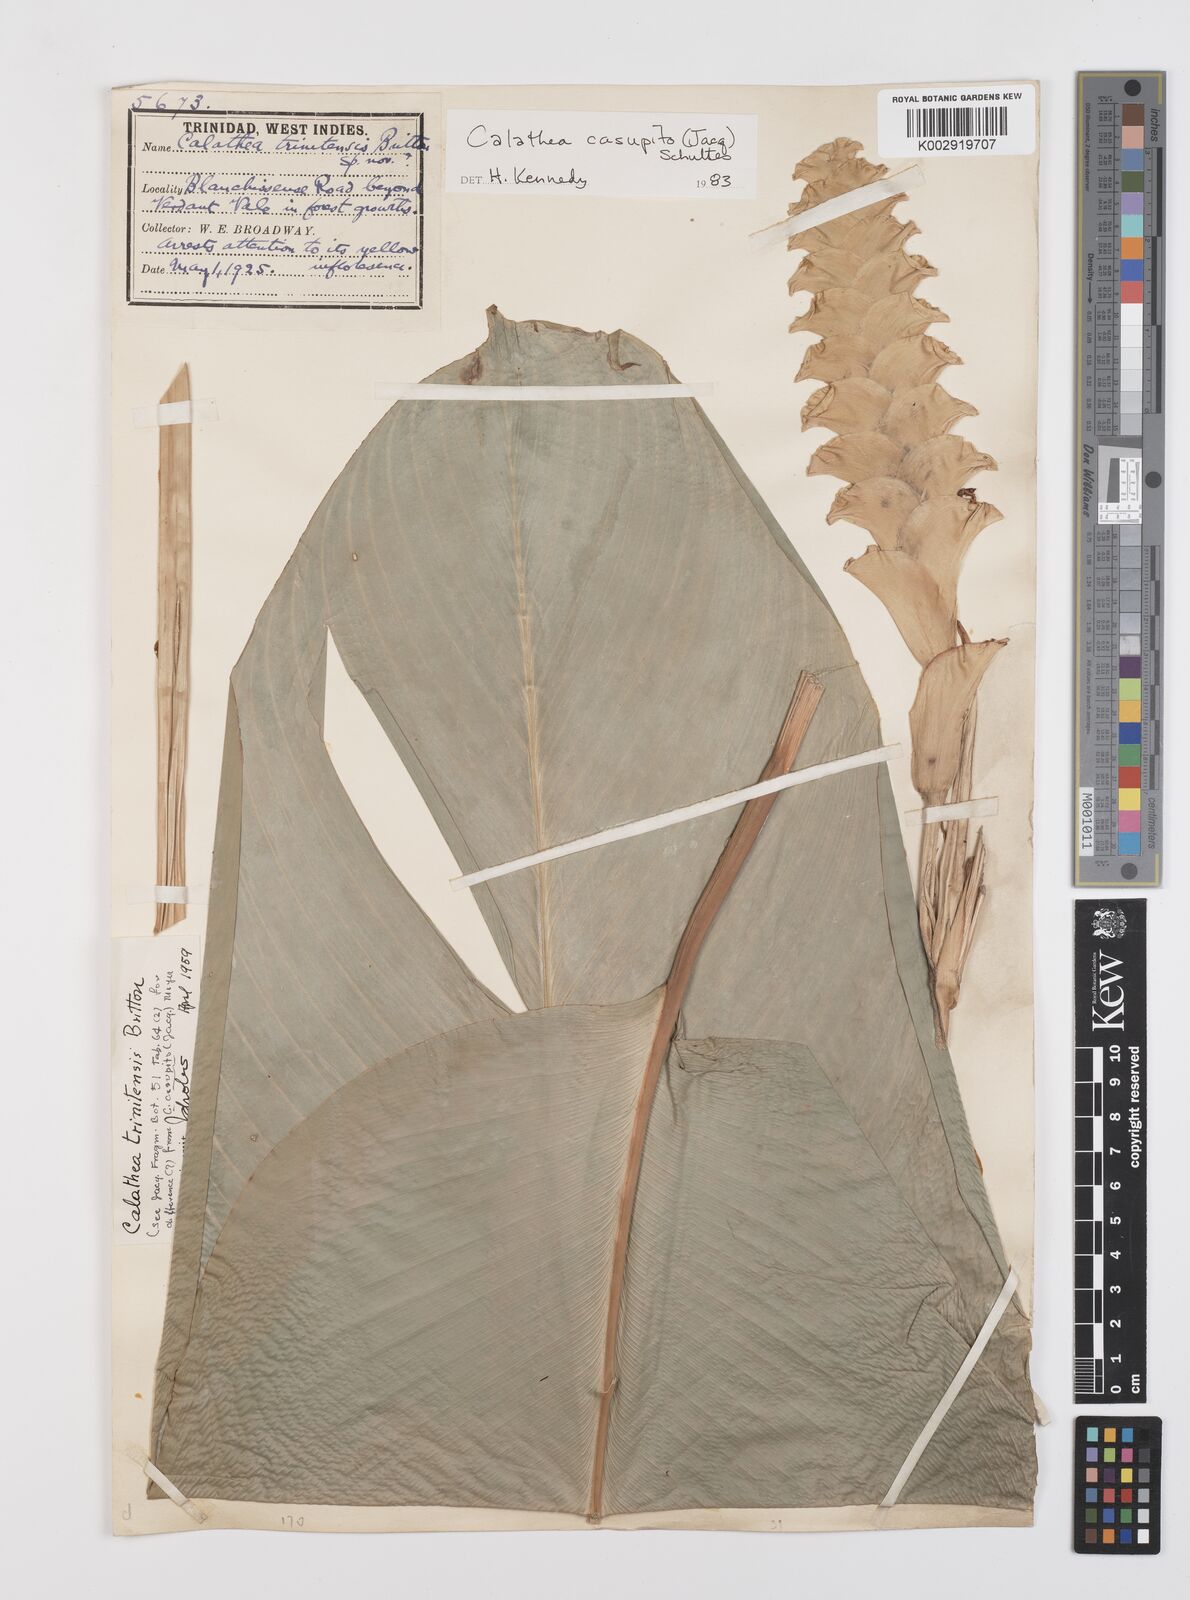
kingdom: Plantae
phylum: Tracheophyta
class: Liliopsida
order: Zingiberales
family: Marantaceae
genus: Calathea
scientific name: Calathea casupito
